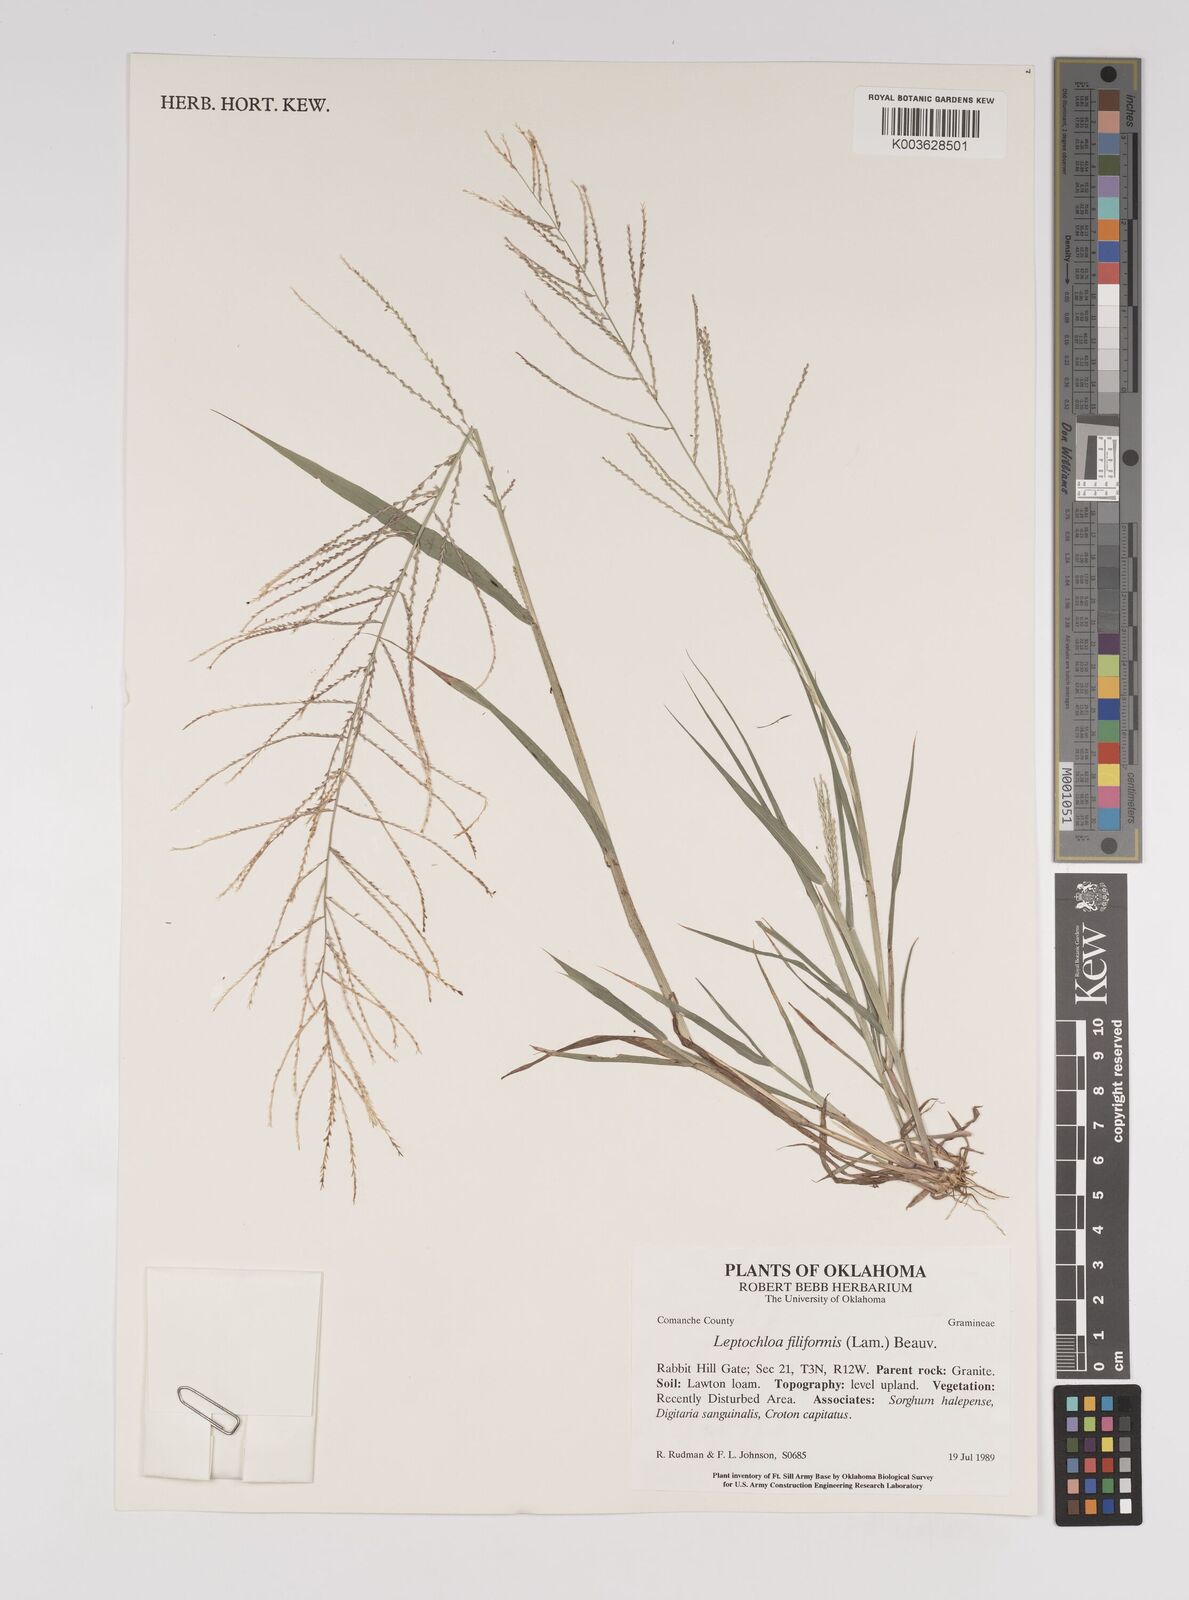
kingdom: Plantae
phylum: Tracheophyta
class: Liliopsida
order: Poales
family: Poaceae
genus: Leptochloa
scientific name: Leptochloa panicea
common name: Mucronate sprangletop
